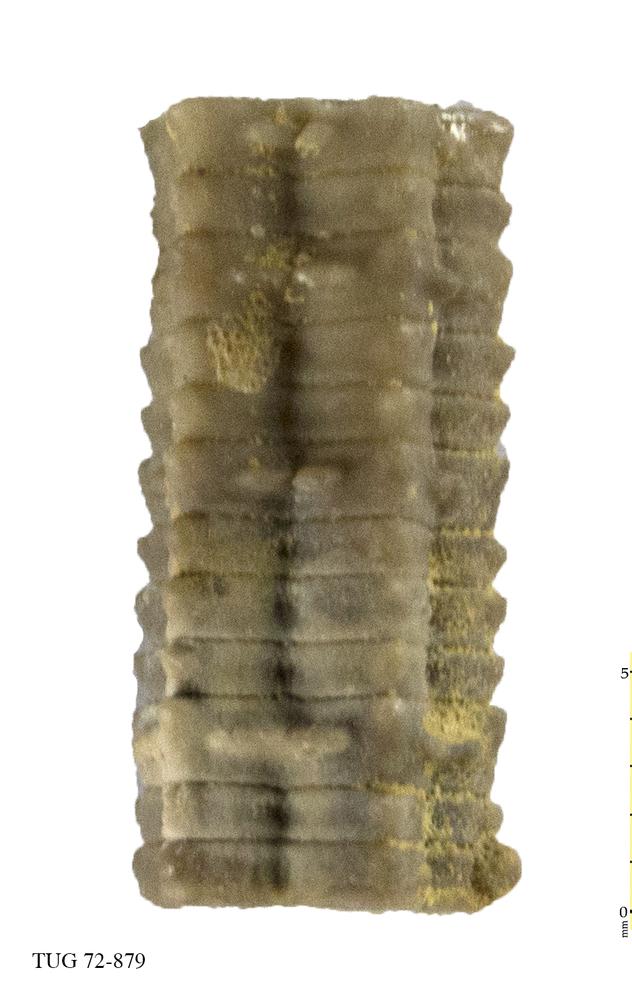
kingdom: Animalia
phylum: Echinodermata
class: Crinoidea
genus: Baltocrinus
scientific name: Baltocrinus
